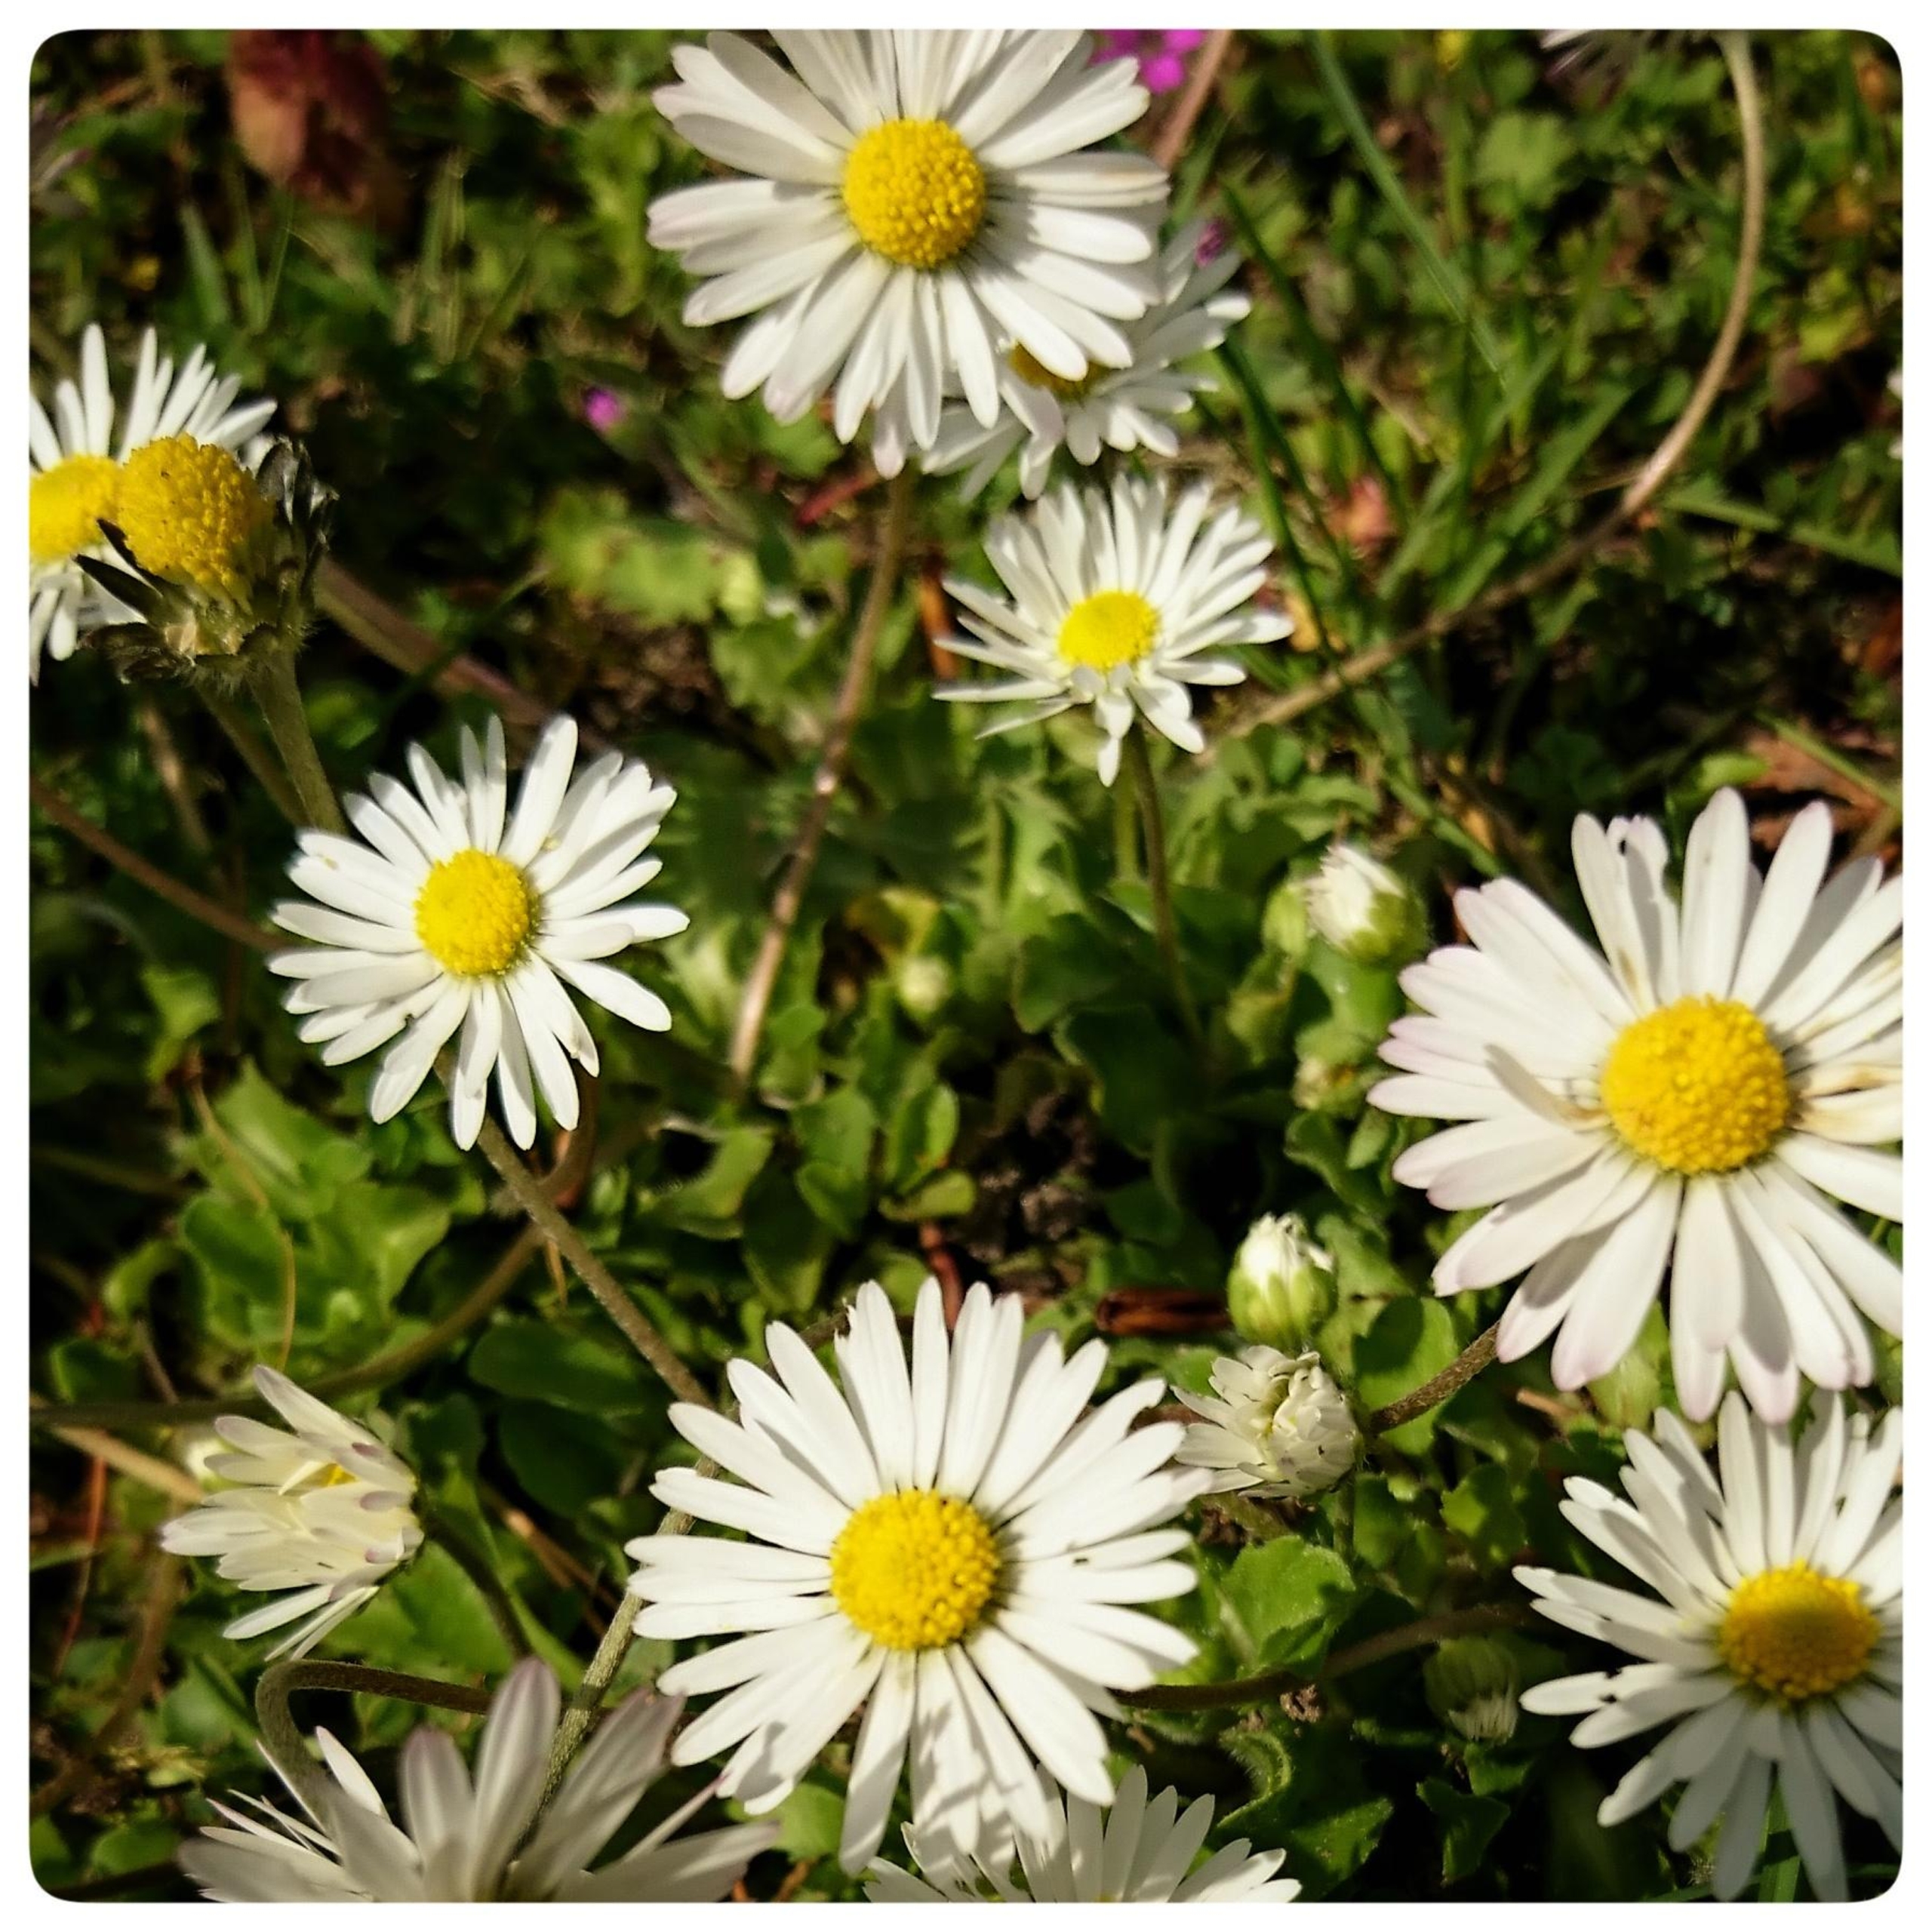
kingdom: Plantae
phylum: Tracheophyta
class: Magnoliopsida
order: Asterales
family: Asteraceae
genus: Bellis
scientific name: Bellis perennis
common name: Tusindfryd
